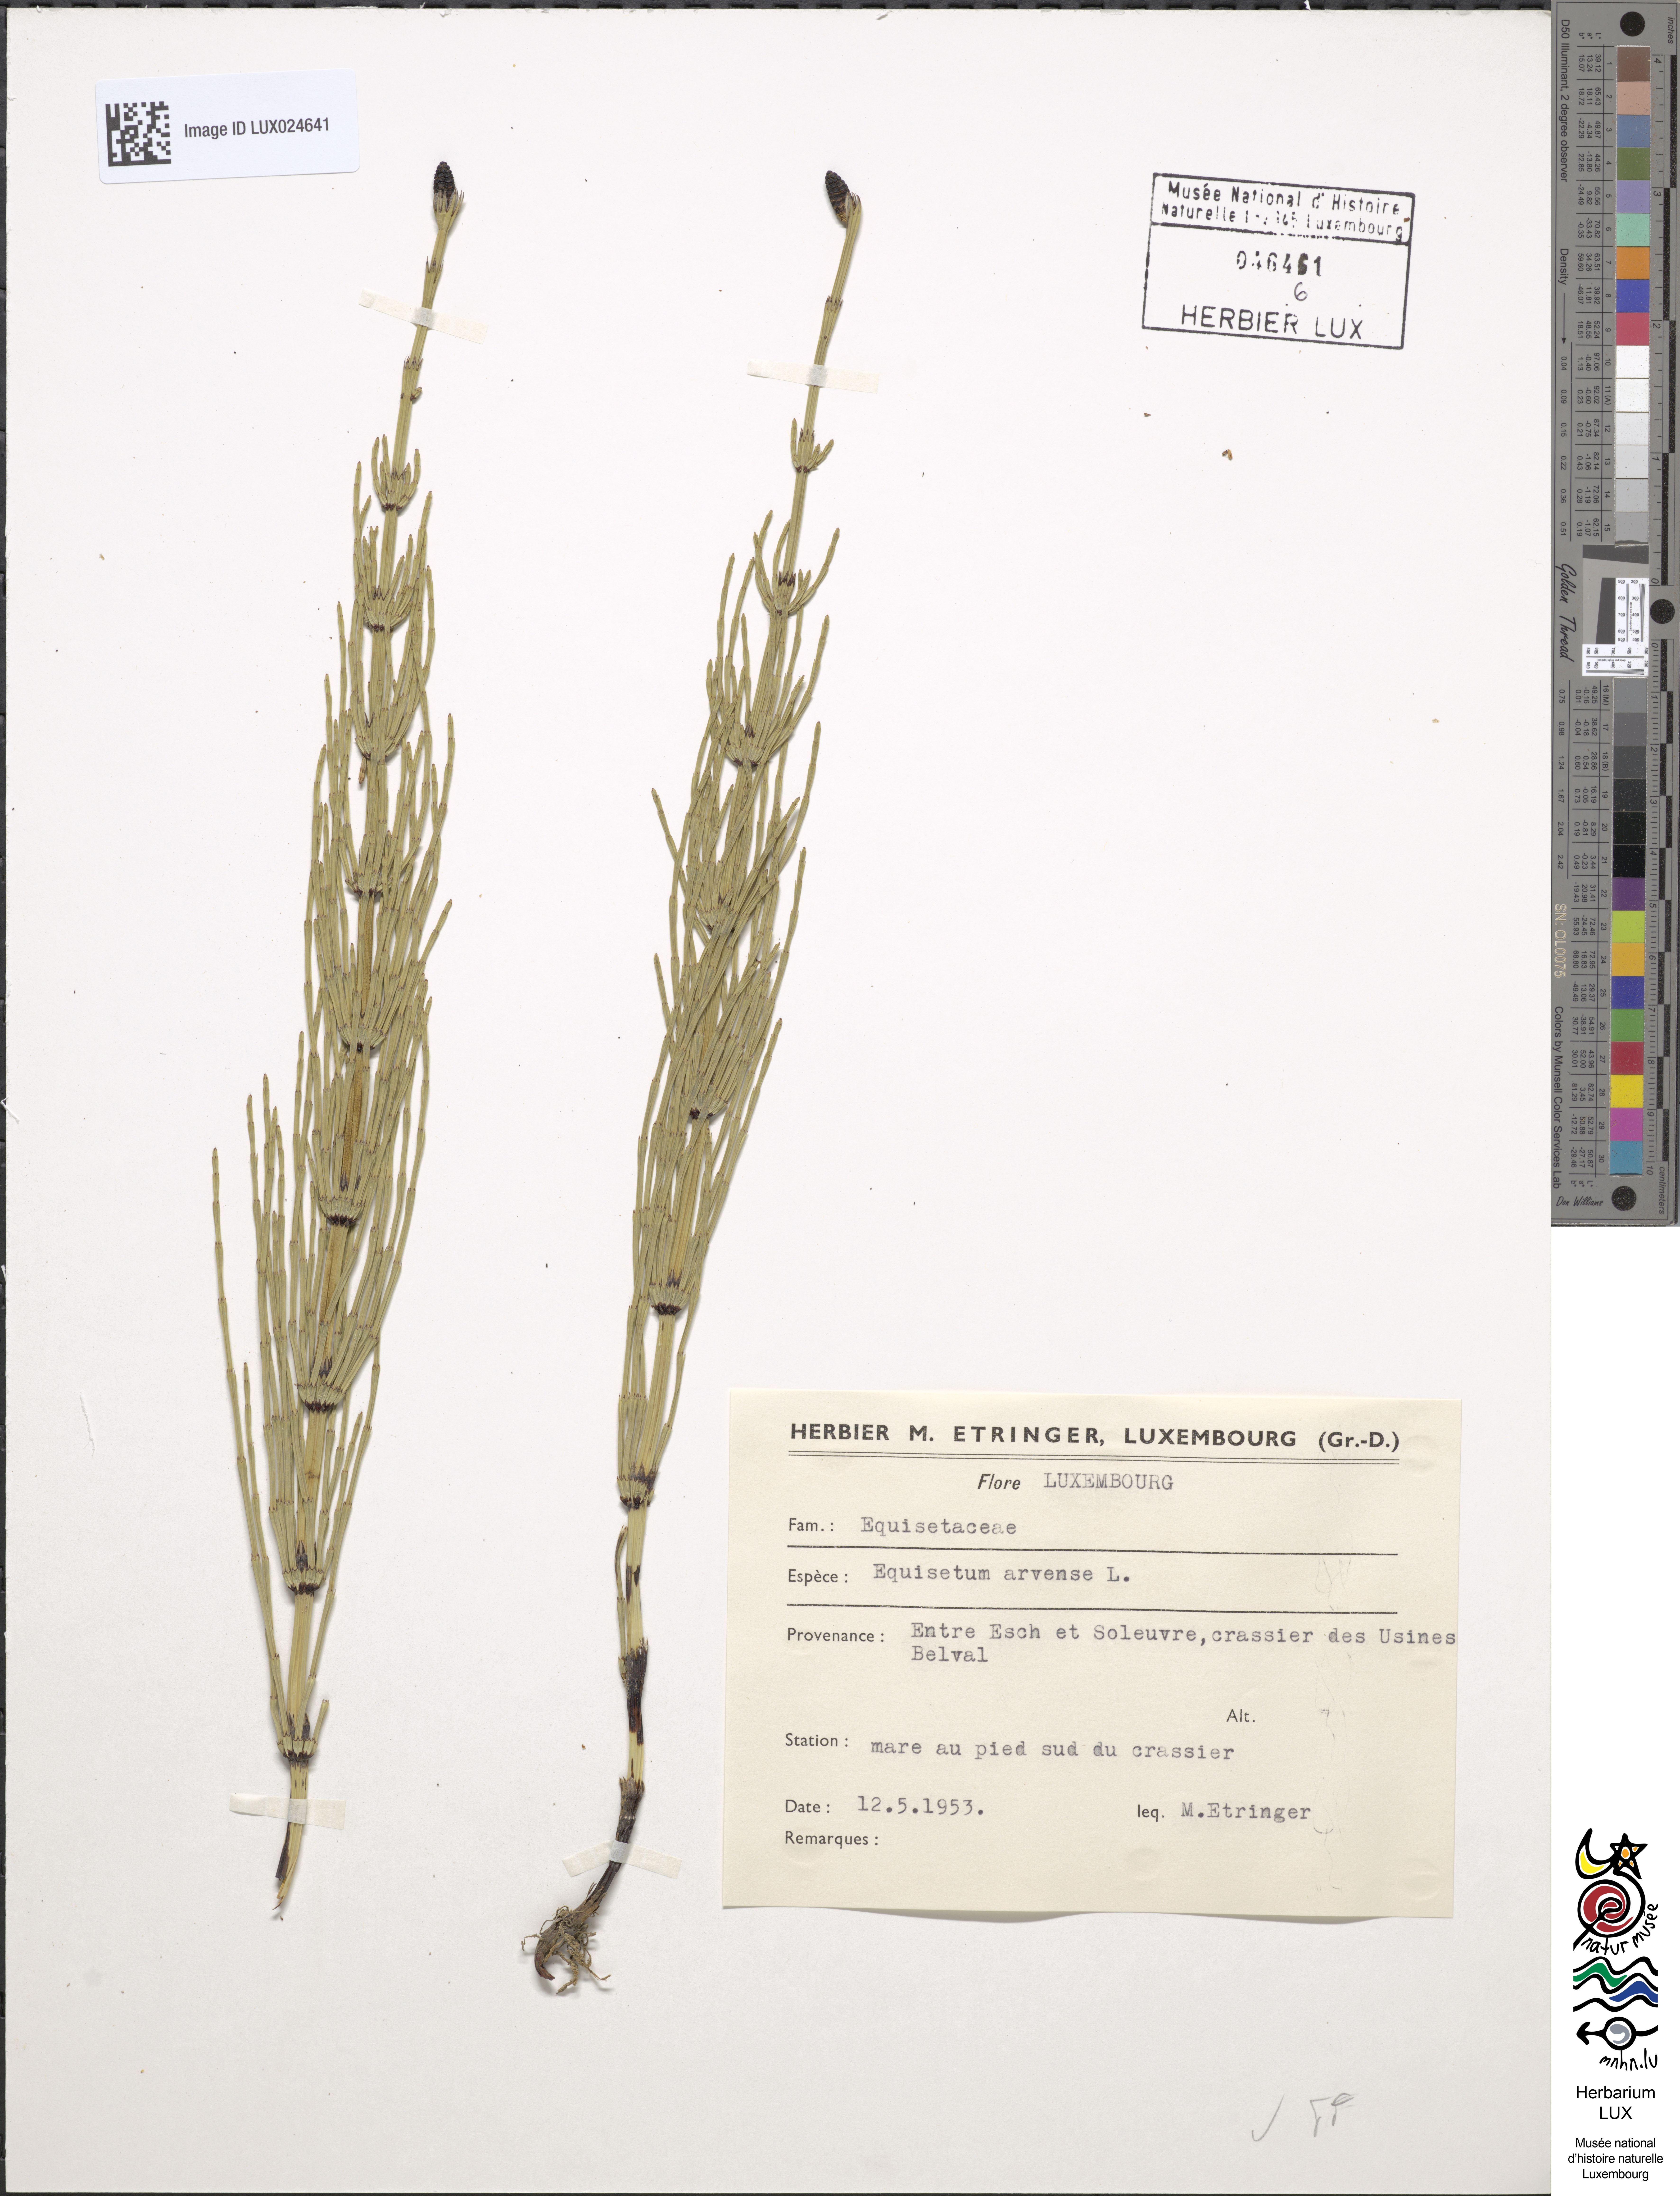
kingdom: Plantae
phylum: Tracheophyta
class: Polypodiopsida
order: Equisetales
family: Equisetaceae
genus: Equisetum
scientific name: Equisetum arvense
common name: Field horsetail
